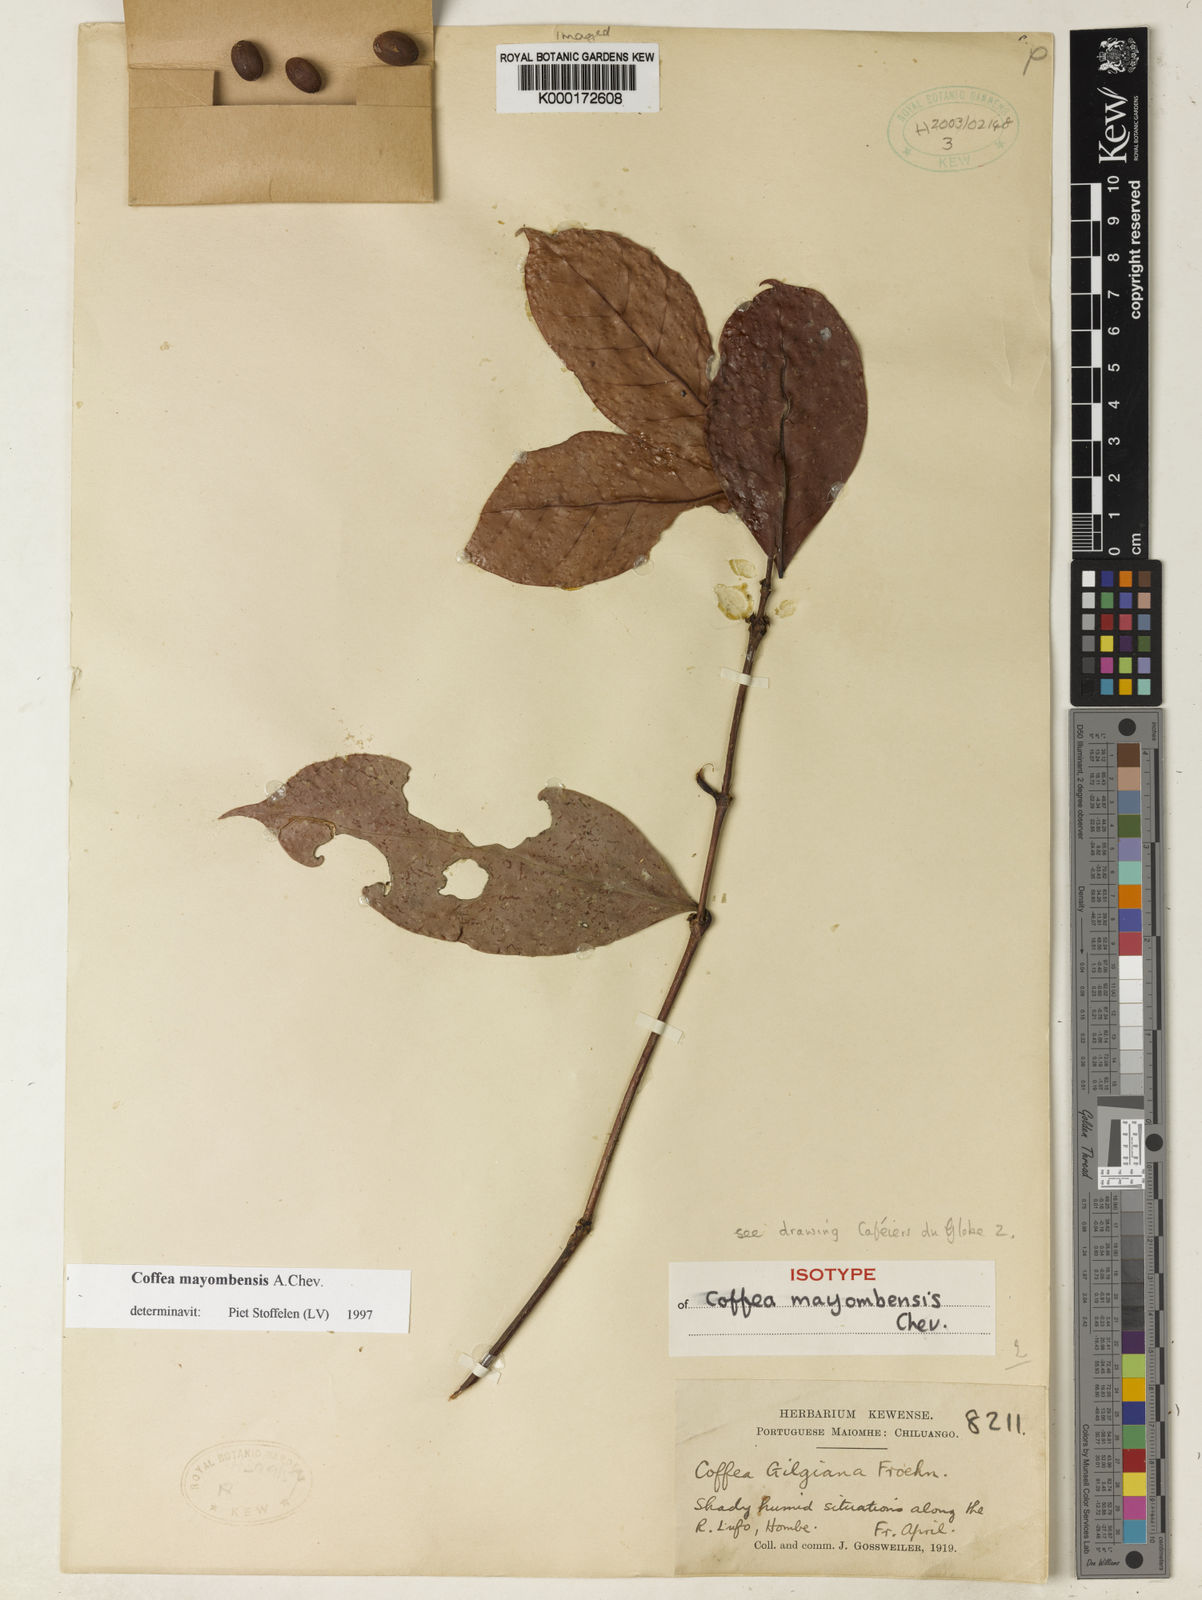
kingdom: Plantae
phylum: Tracheophyta
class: Magnoliopsida
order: Gentianales
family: Rubiaceae
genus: Coffea
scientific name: Coffea mayombensis
